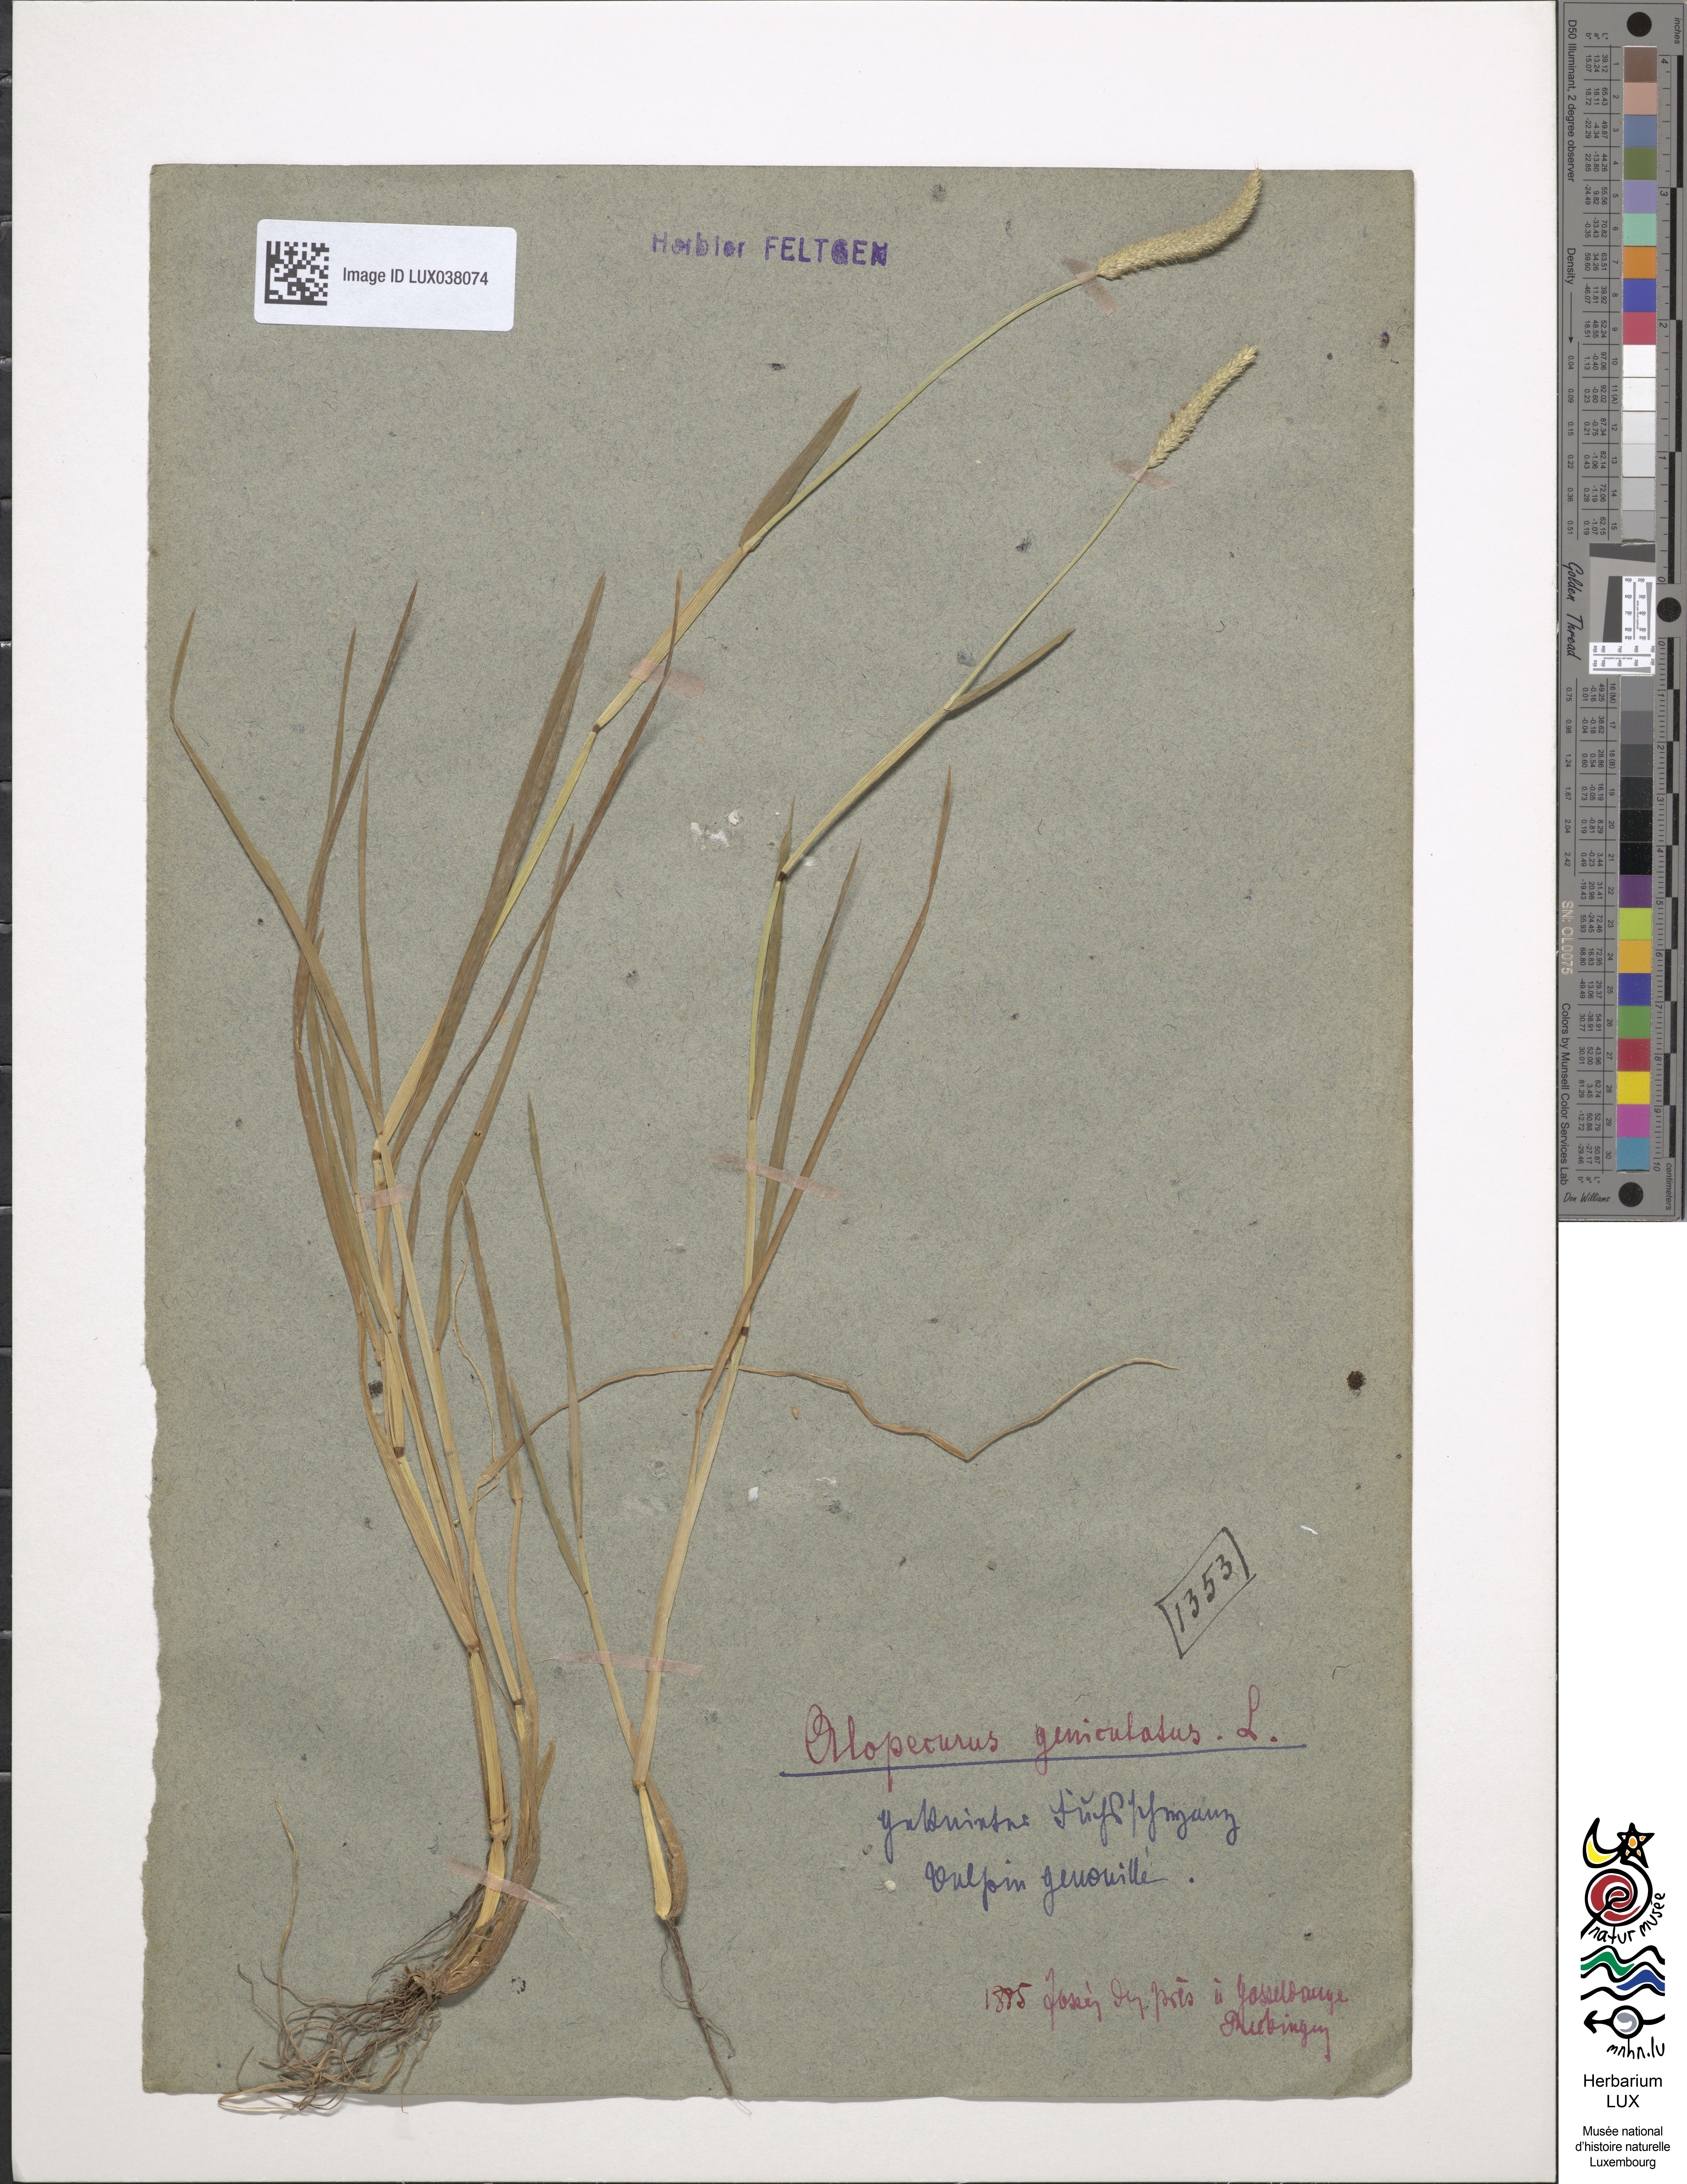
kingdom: Plantae
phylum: Tracheophyta
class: Liliopsida
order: Poales
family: Poaceae
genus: Alopecurus
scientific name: Alopecurus geniculatus
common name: Water foxtail
